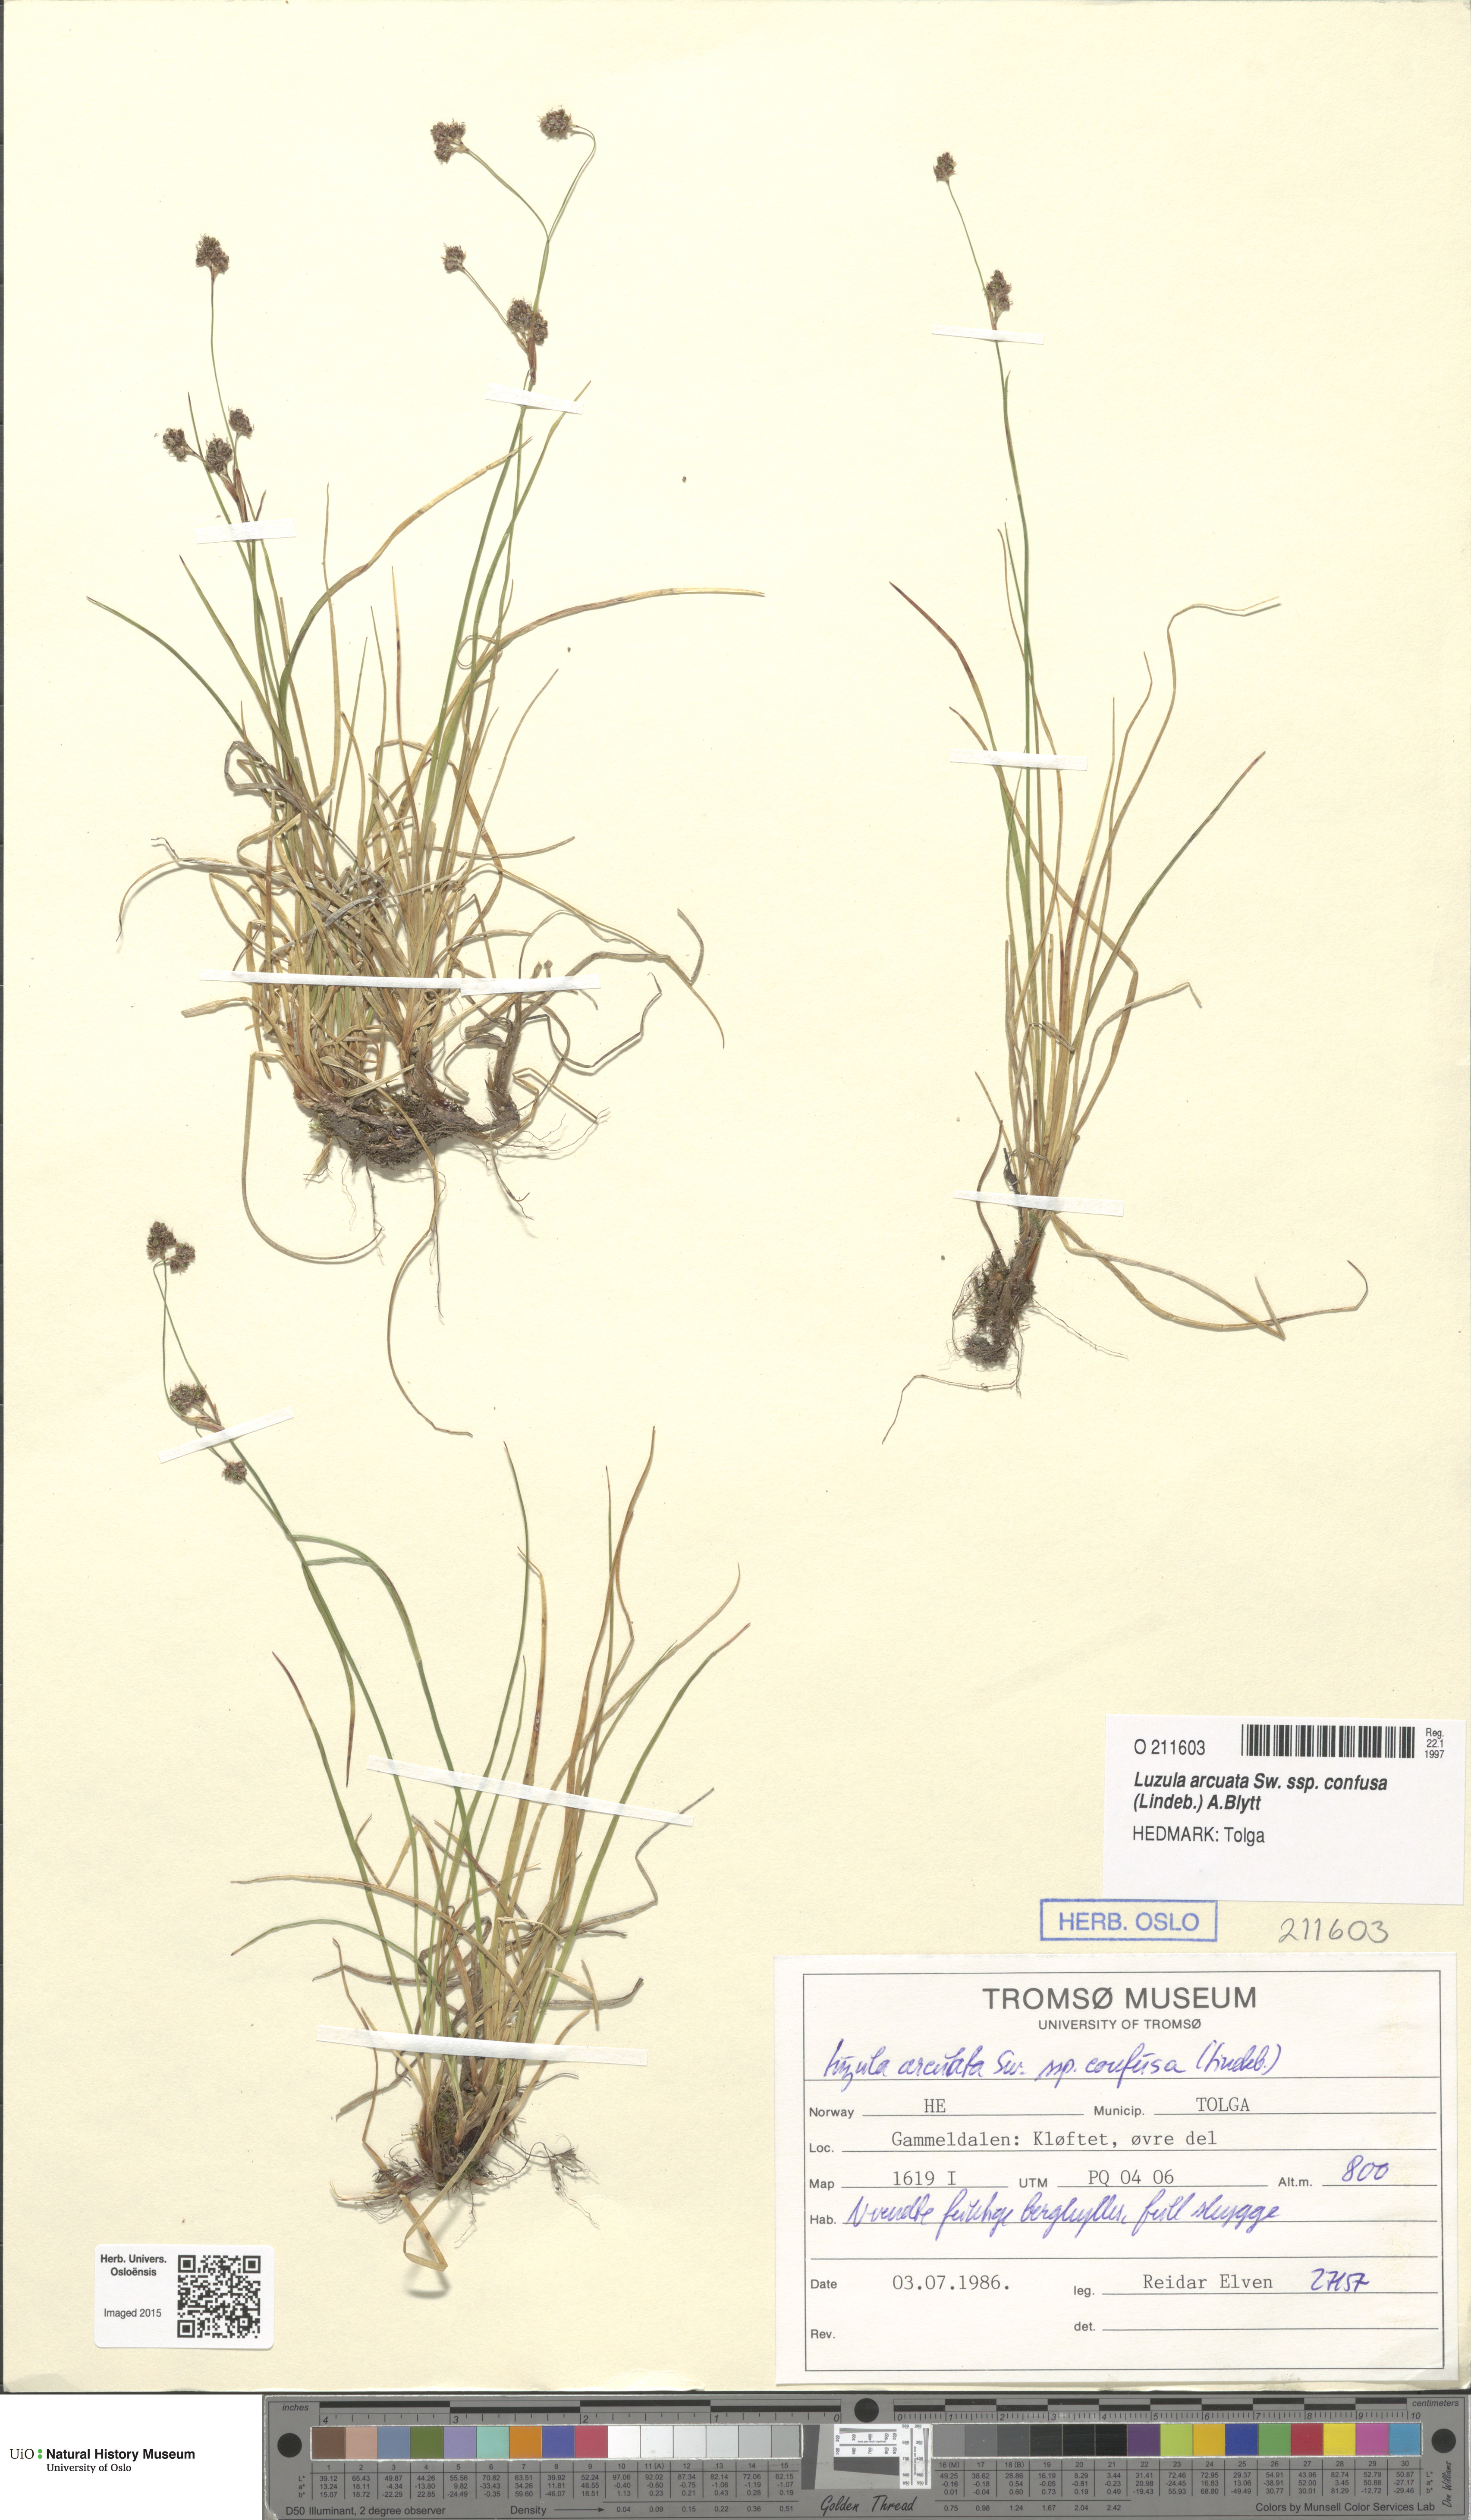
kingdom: Plantae
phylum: Tracheophyta
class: Liliopsida
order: Poales
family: Juncaceae
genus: Luzula
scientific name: Luzula confusa
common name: Northern wood rush
